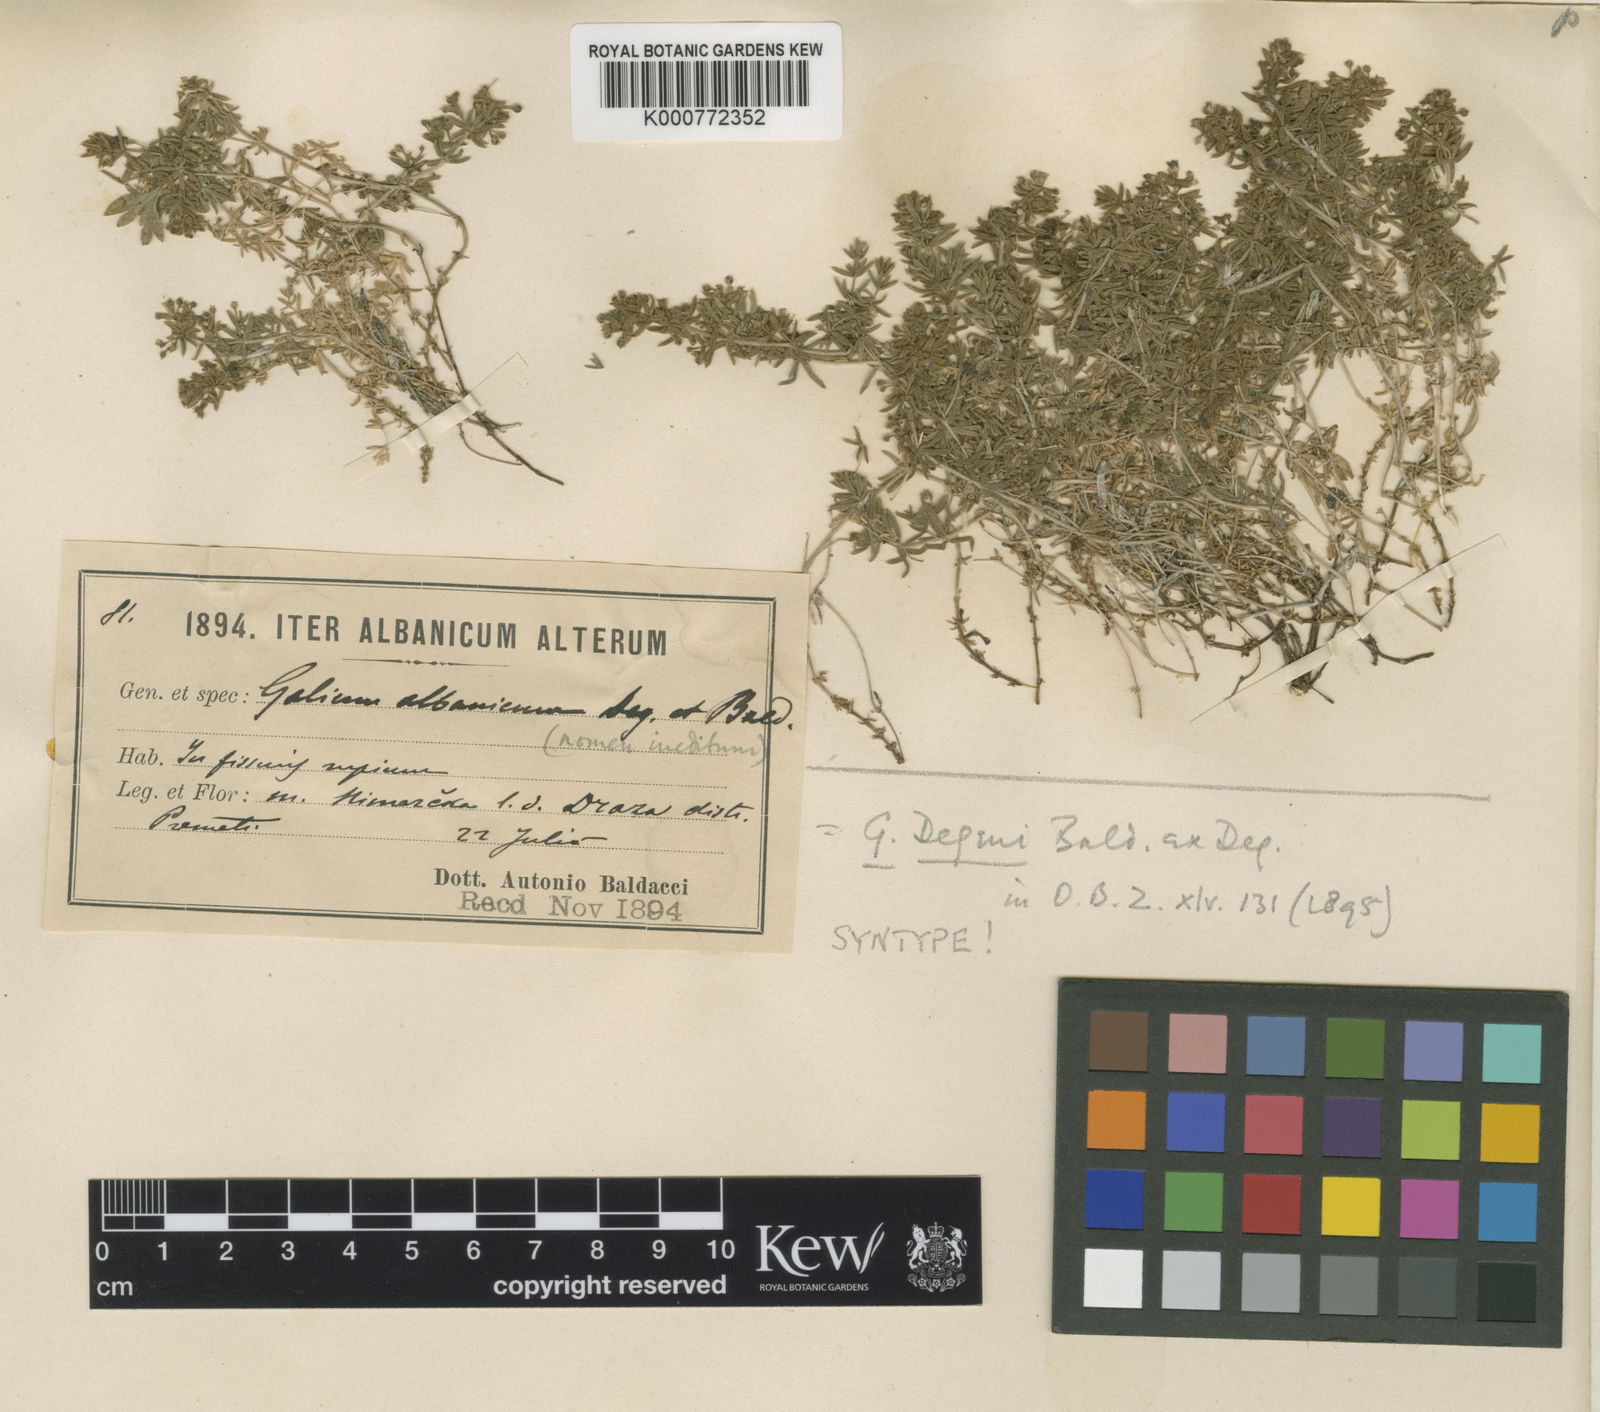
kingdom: Plantae
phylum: Tracheophyta
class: Magnoliopsida
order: Gentianales
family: Rubiaceae
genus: Galium
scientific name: Galium degenii
